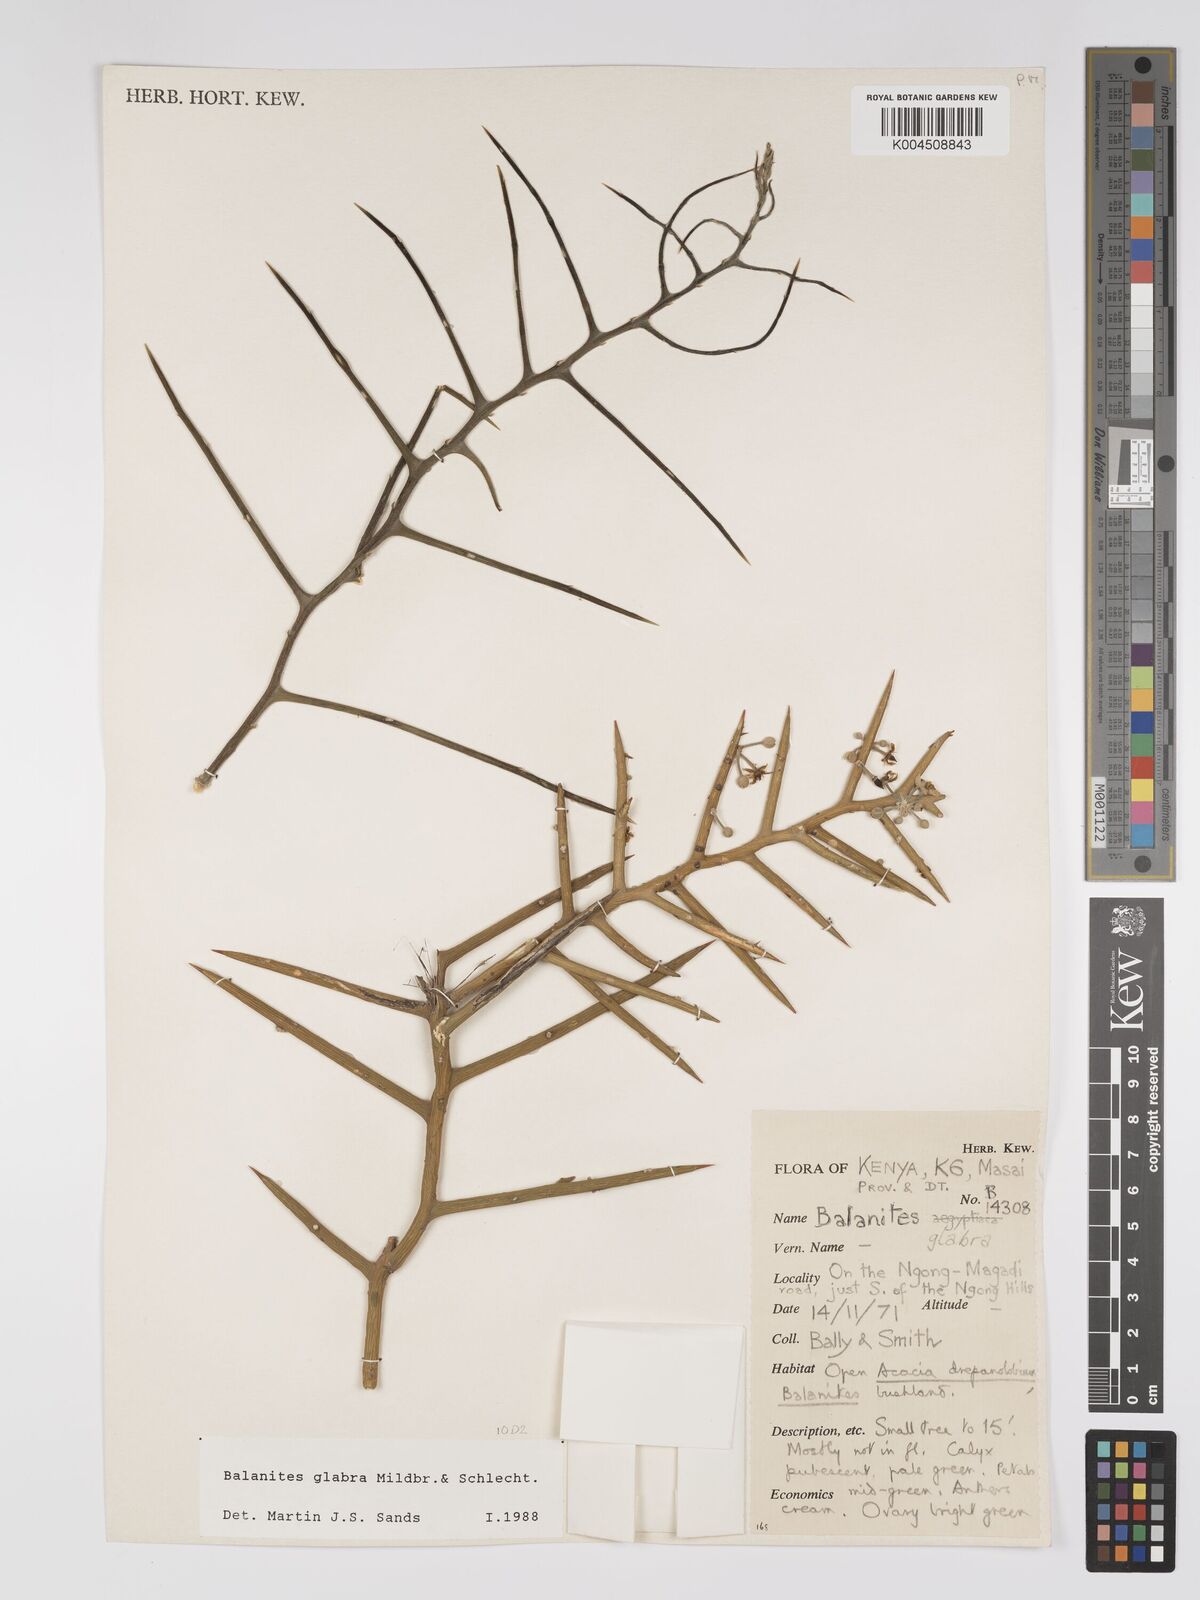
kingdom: Plantae
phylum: Tracheophyta
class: Magnoliopsida
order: Zygophyllales
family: Zygophyllaceae
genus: Balanites
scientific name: Balanites glabra
